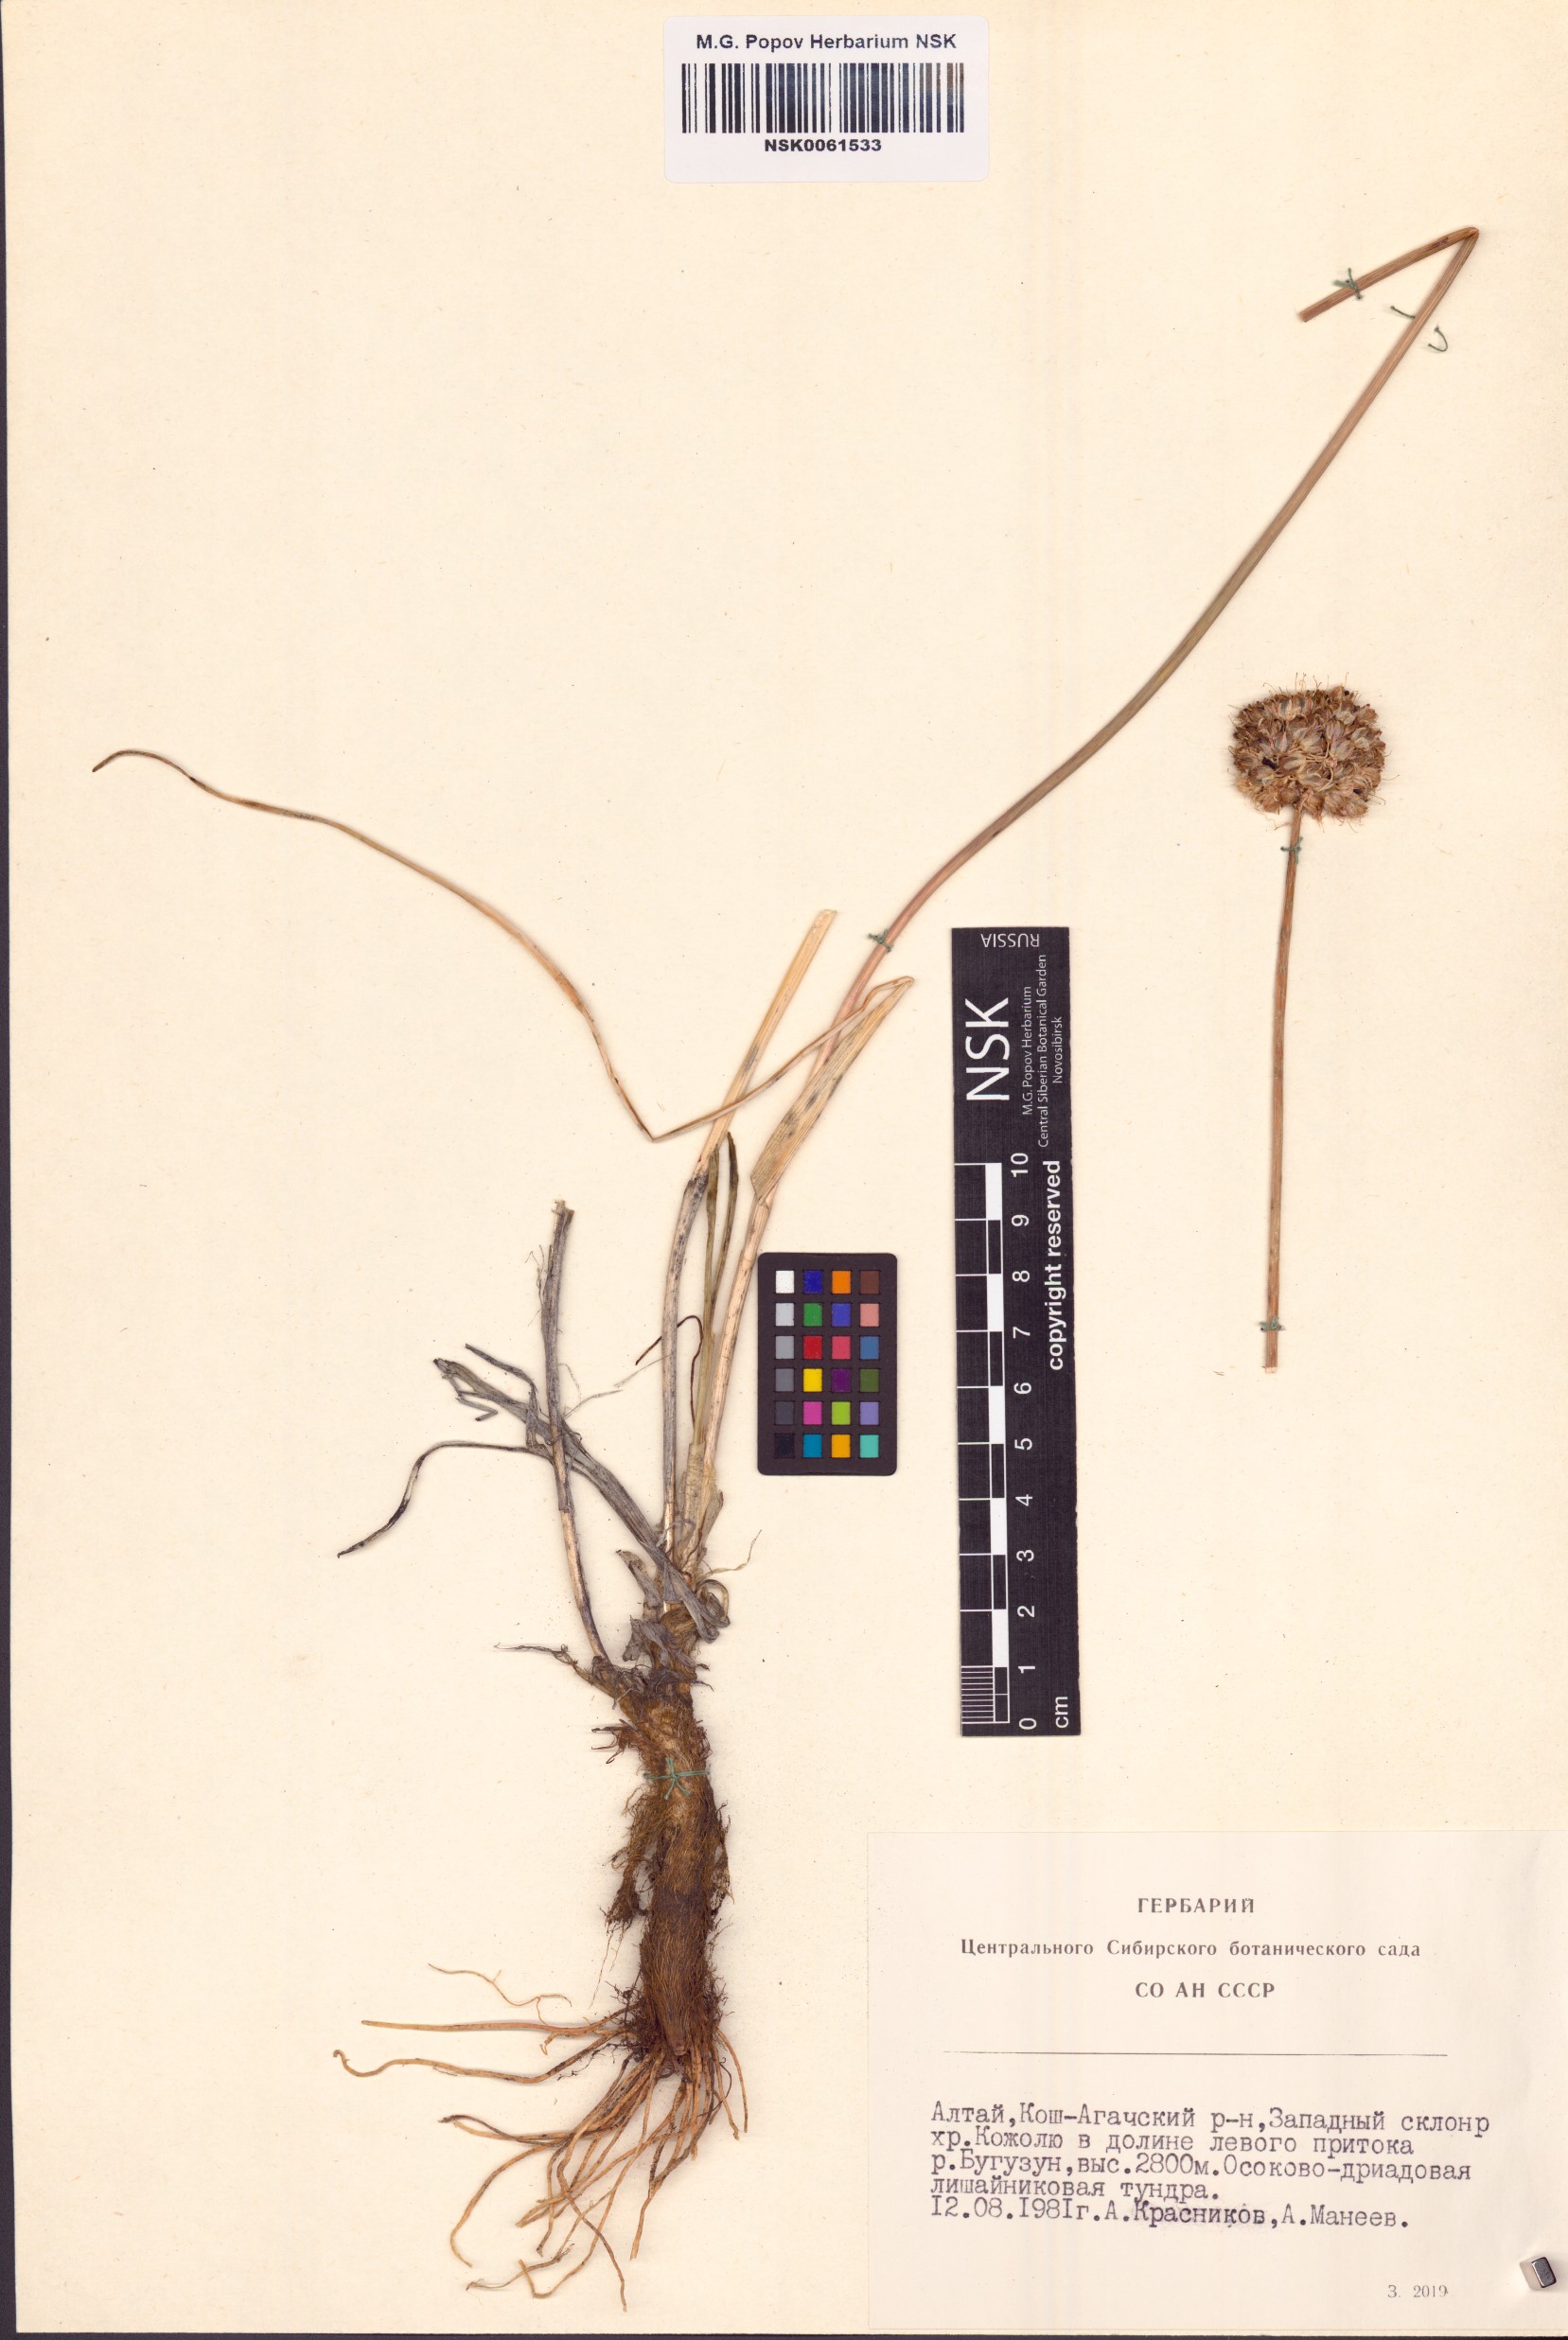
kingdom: Plantae
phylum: Tracheophyta
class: Liliopsida
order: Asparagales
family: Amaryllidaceae
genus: Allium
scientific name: Allium strictum
